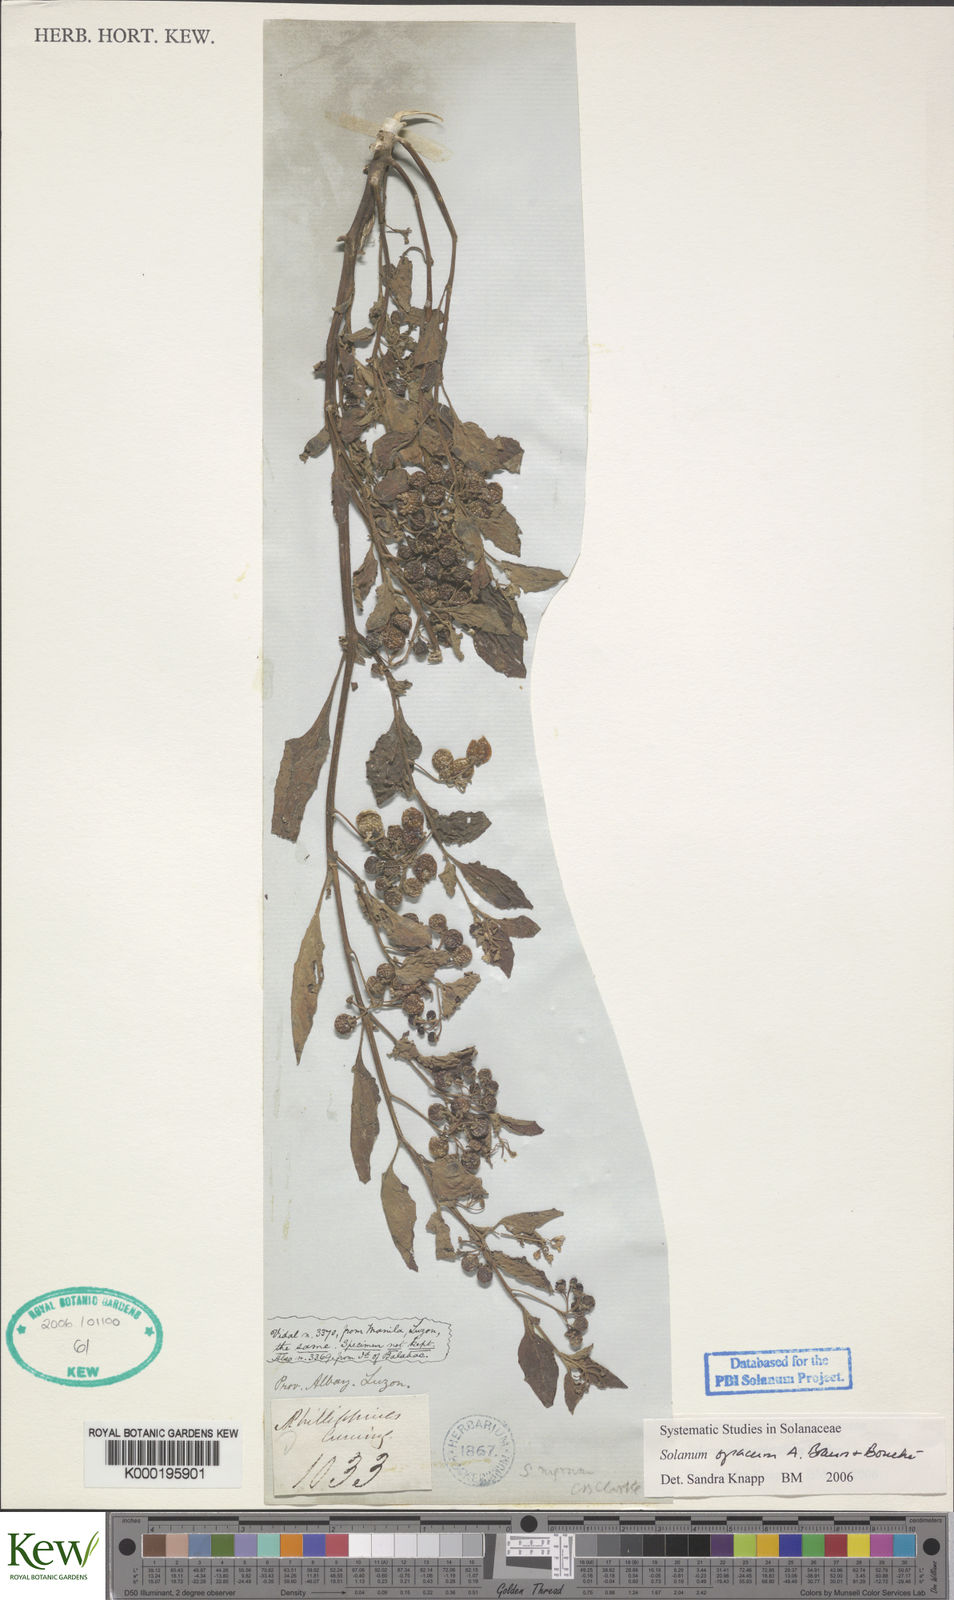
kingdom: Plantae
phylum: Tracheophyta
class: Magnoliopsida
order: Solanales
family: Solanaceae
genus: Solanum
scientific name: Solanum
